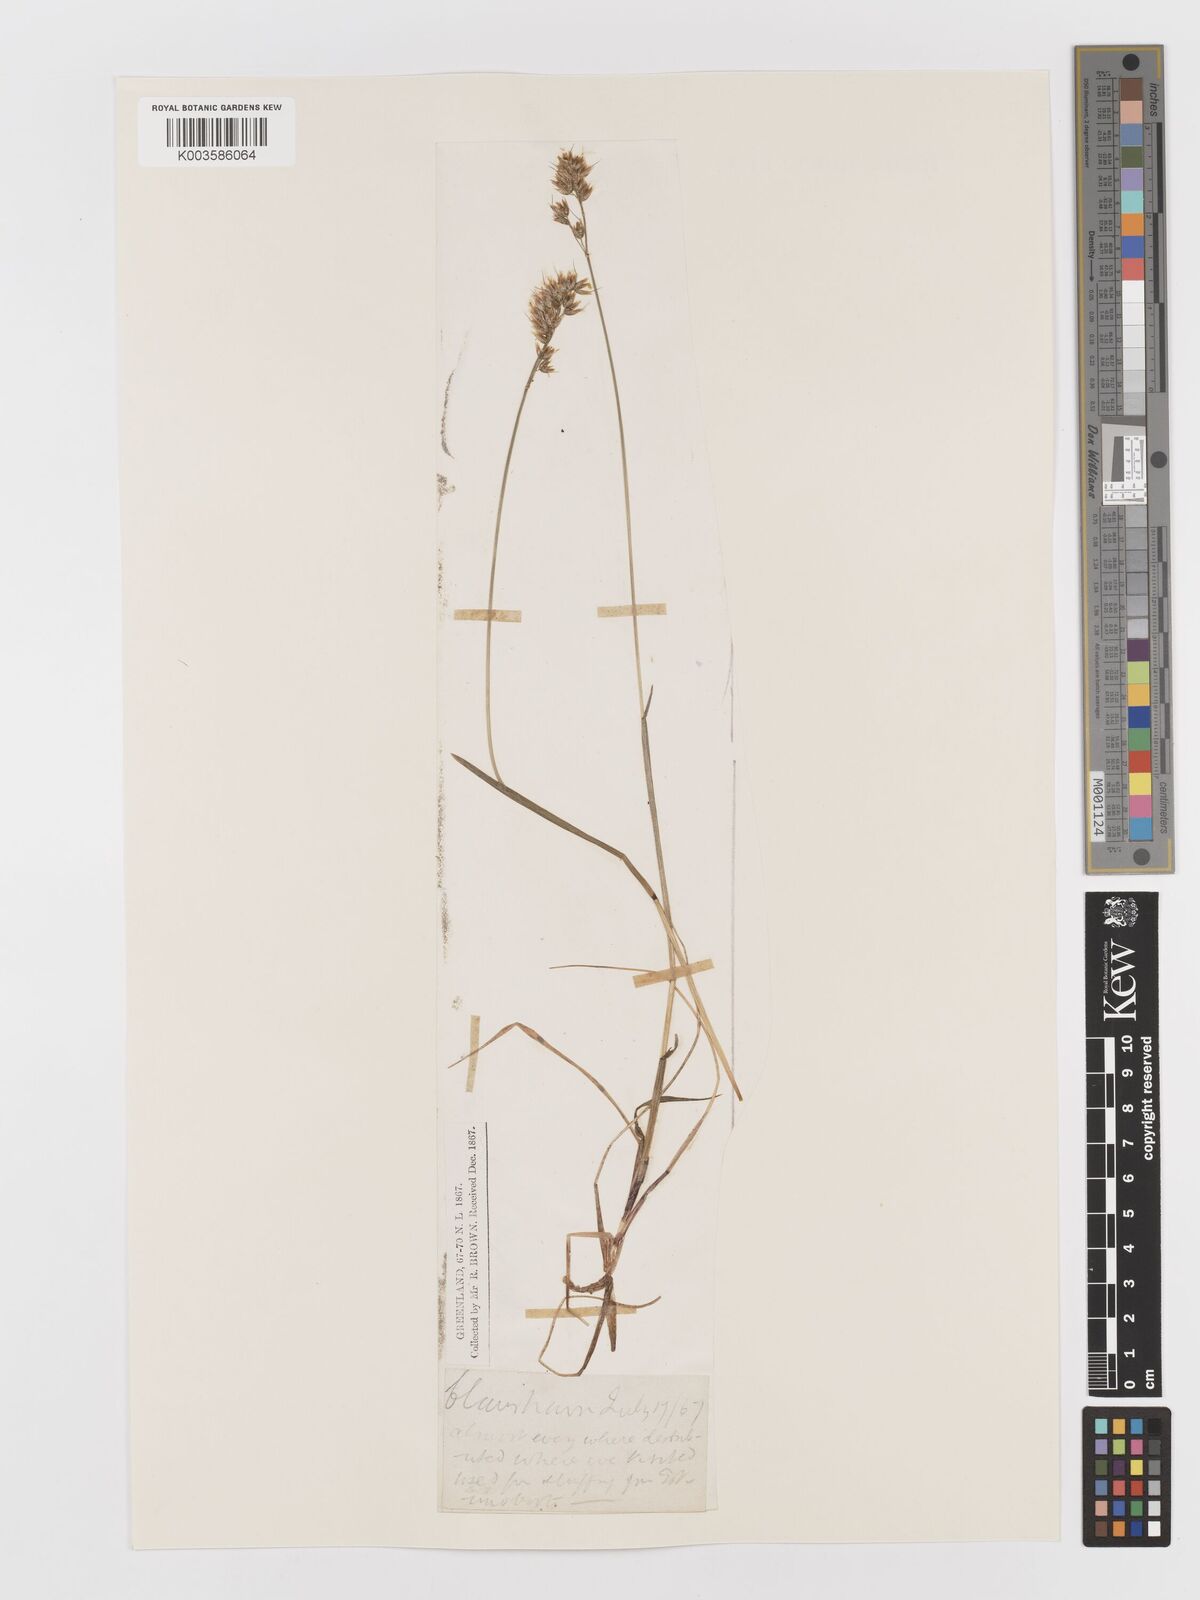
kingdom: Plantae
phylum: Tracheophyta
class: Liliopsida
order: Poales
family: Poaceae
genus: Anthoxanthum
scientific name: Anthoxanthum monticola
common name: Alpine sweetgrass
